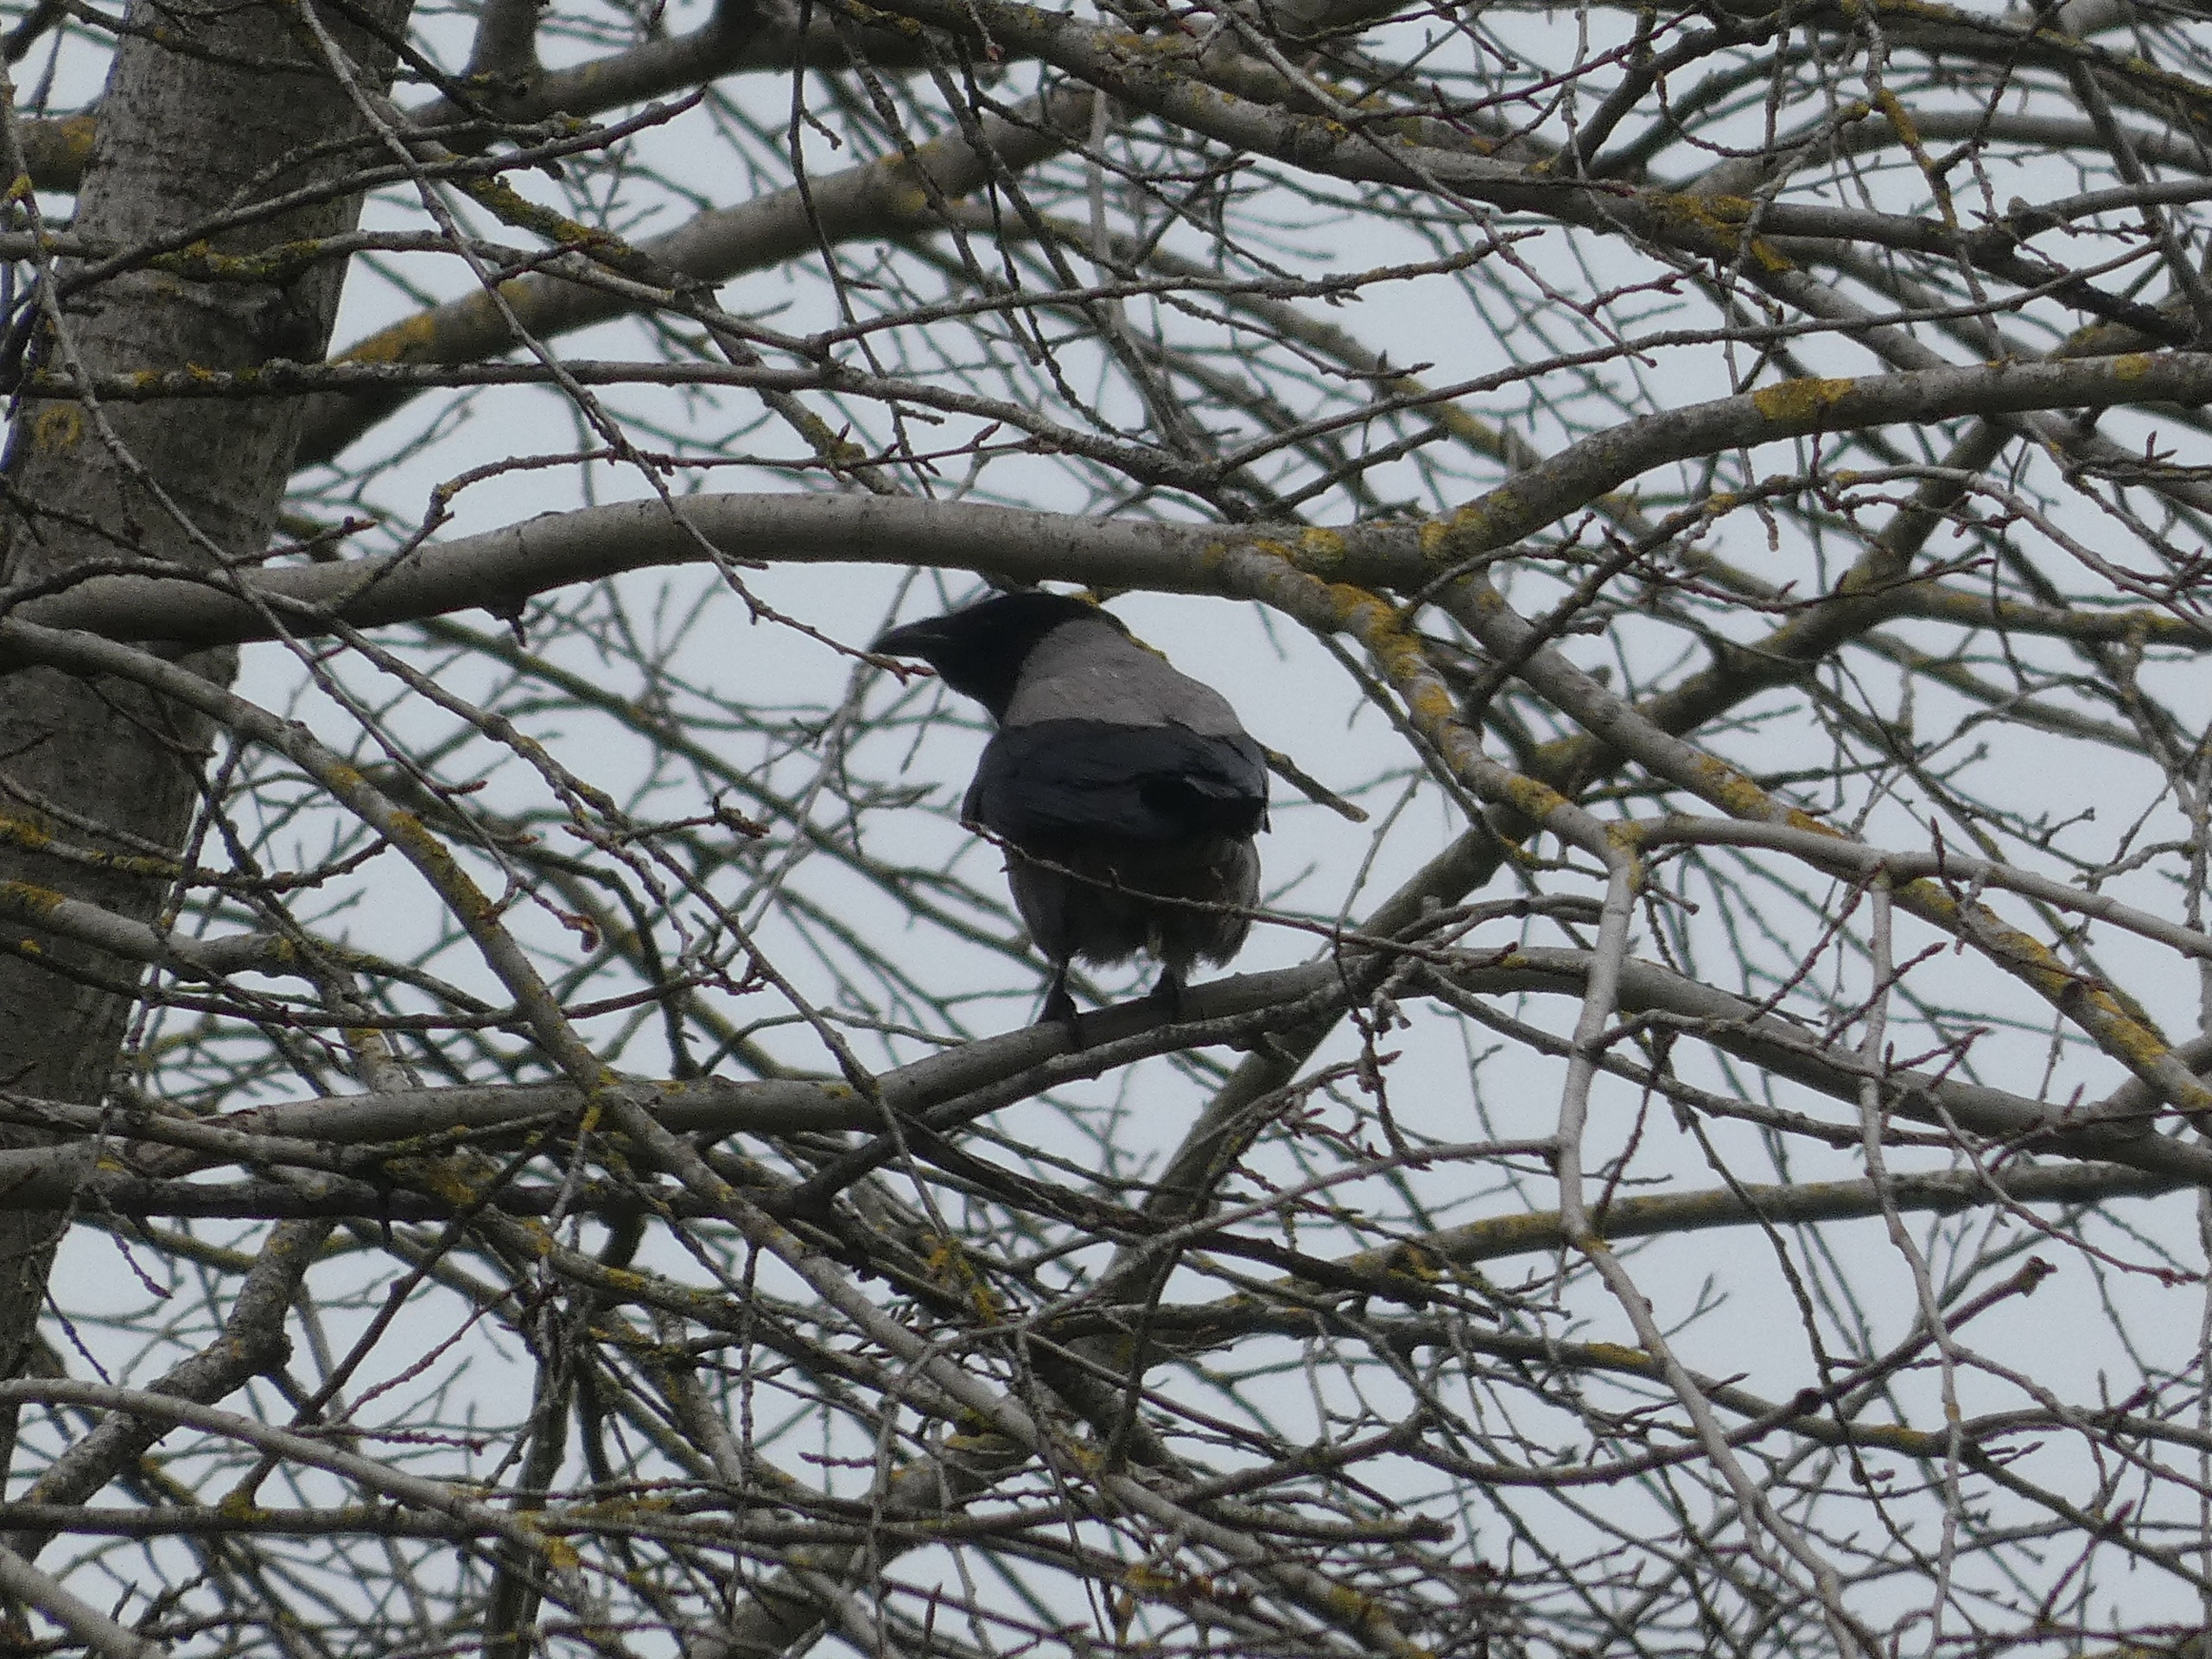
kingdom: Animalia
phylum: Chordata
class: Aves
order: Passeriformes
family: Corvidae
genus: Corvus
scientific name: Corvus cornix
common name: Gråkrage
